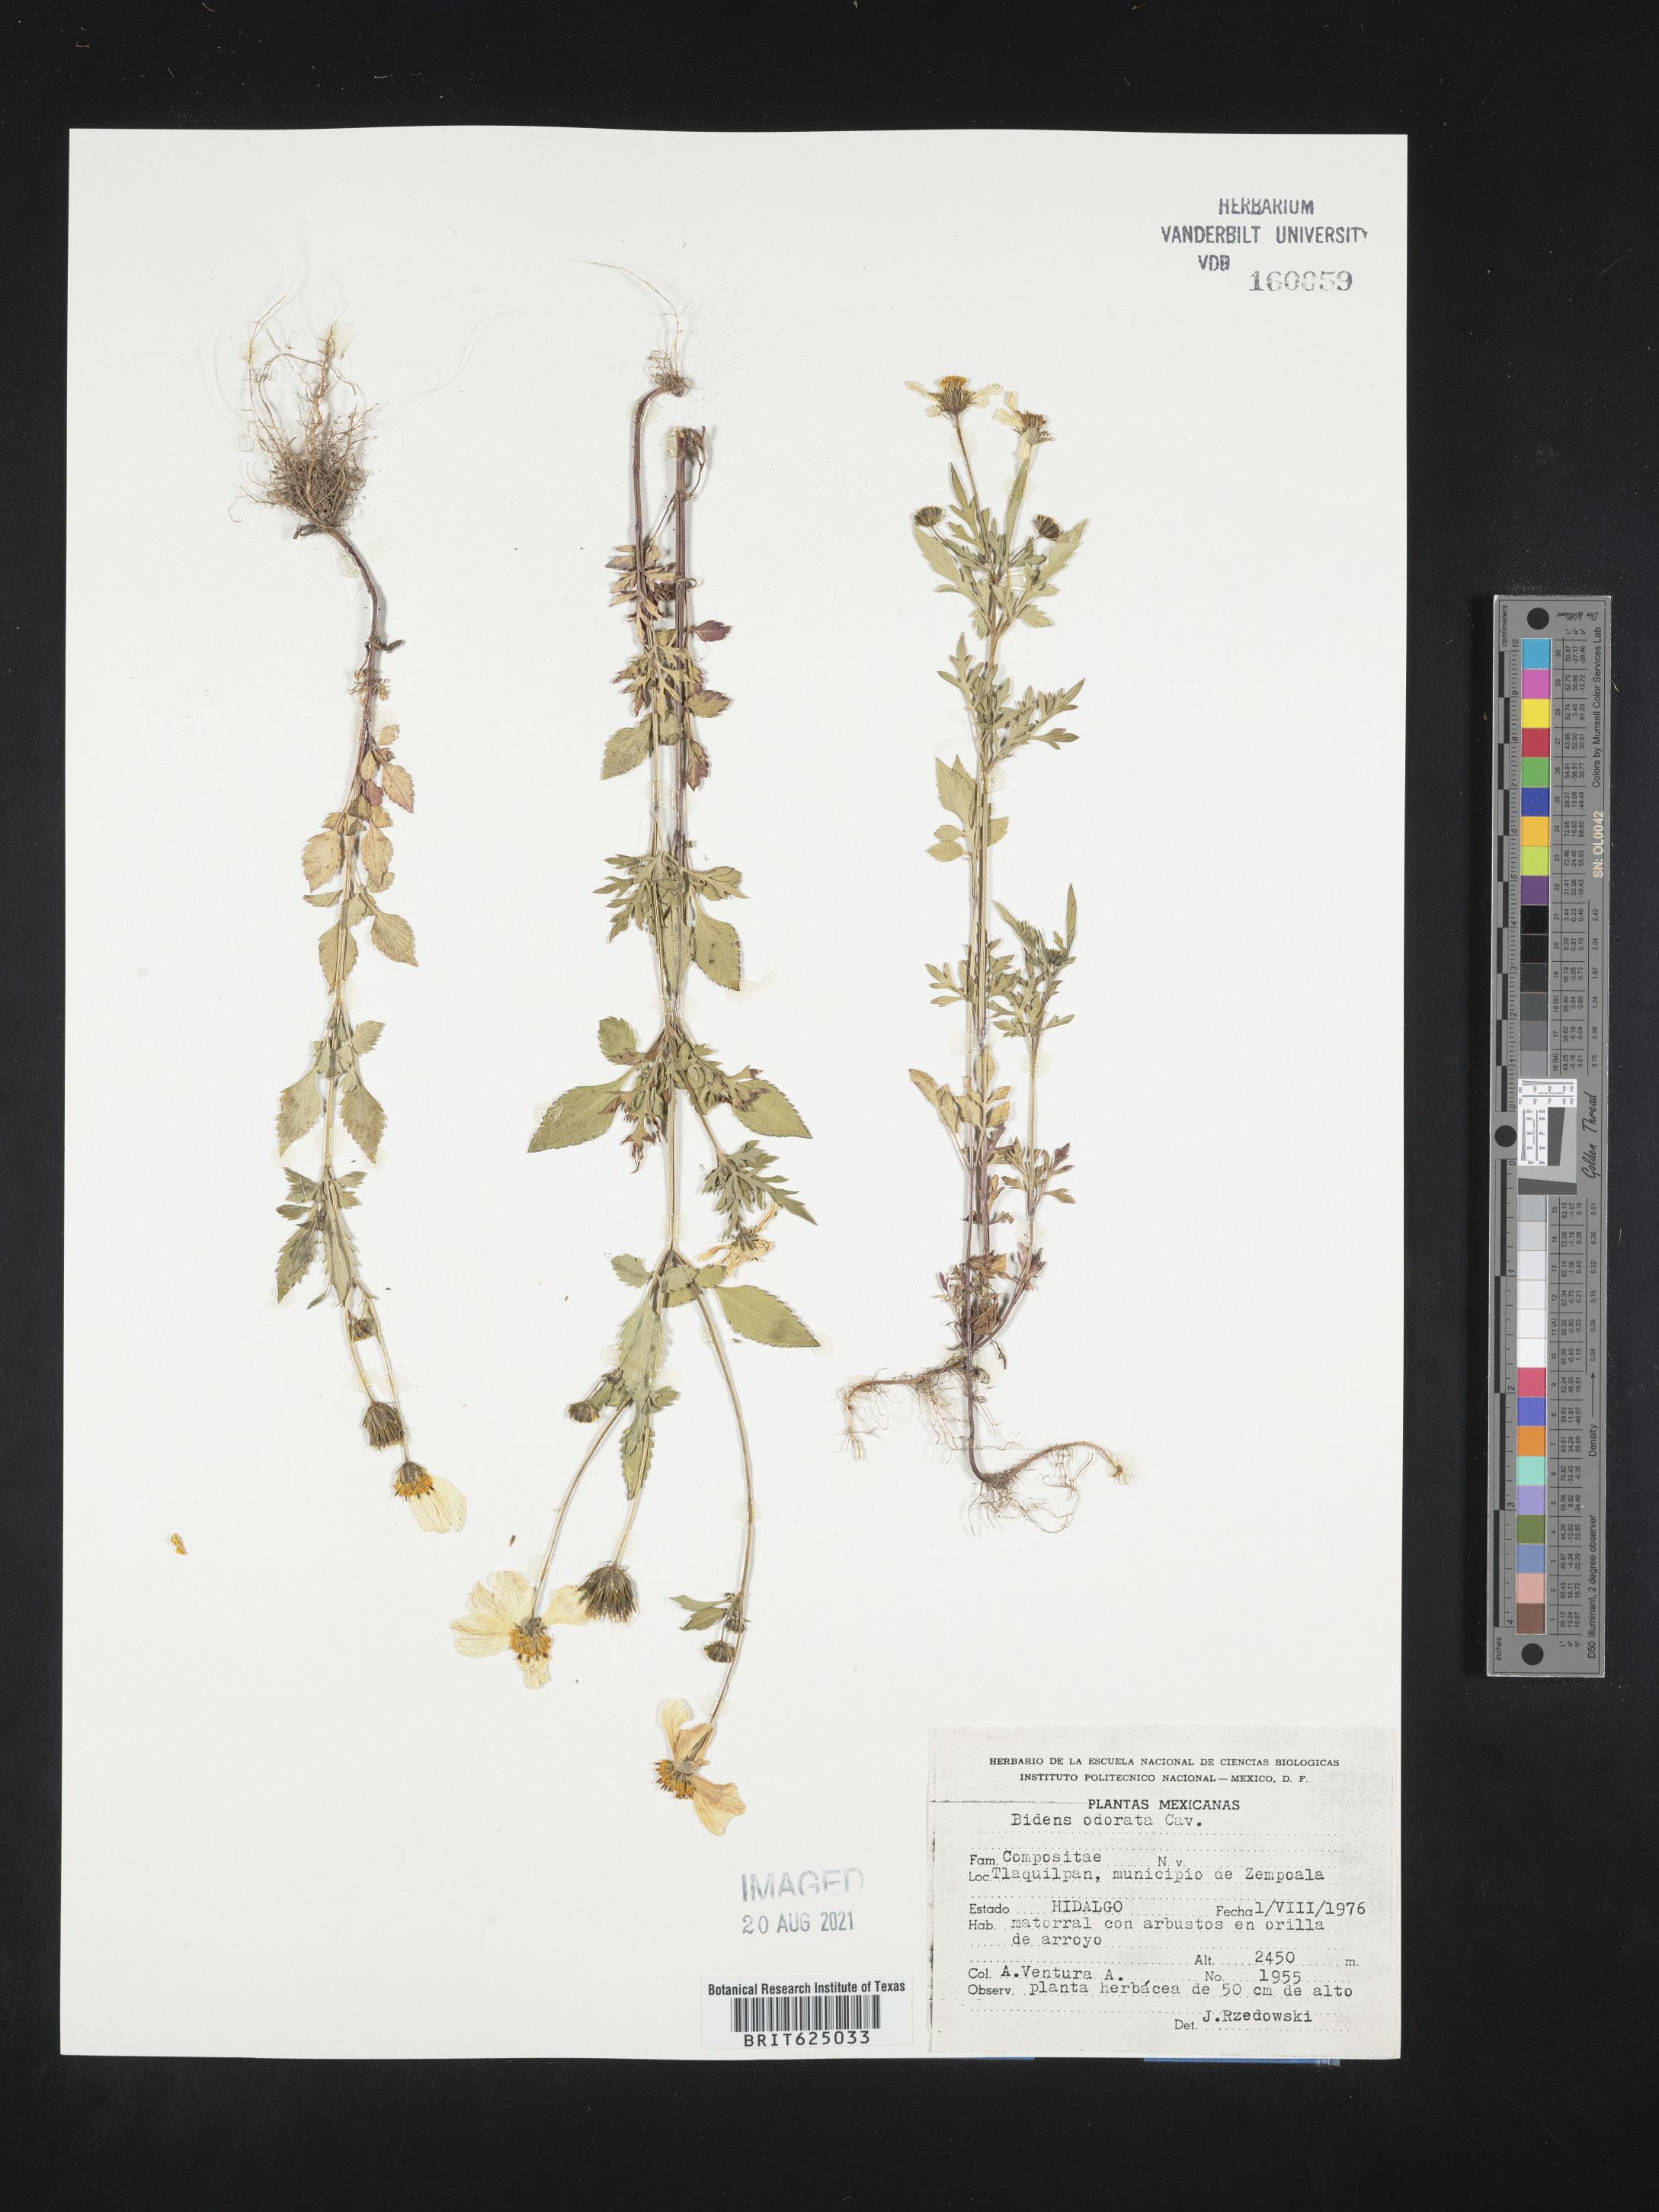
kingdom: Plantae
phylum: Tracheophyta
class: Magnoliopsida
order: Asterales
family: Asteraceae
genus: Bidens
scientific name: Bidens
